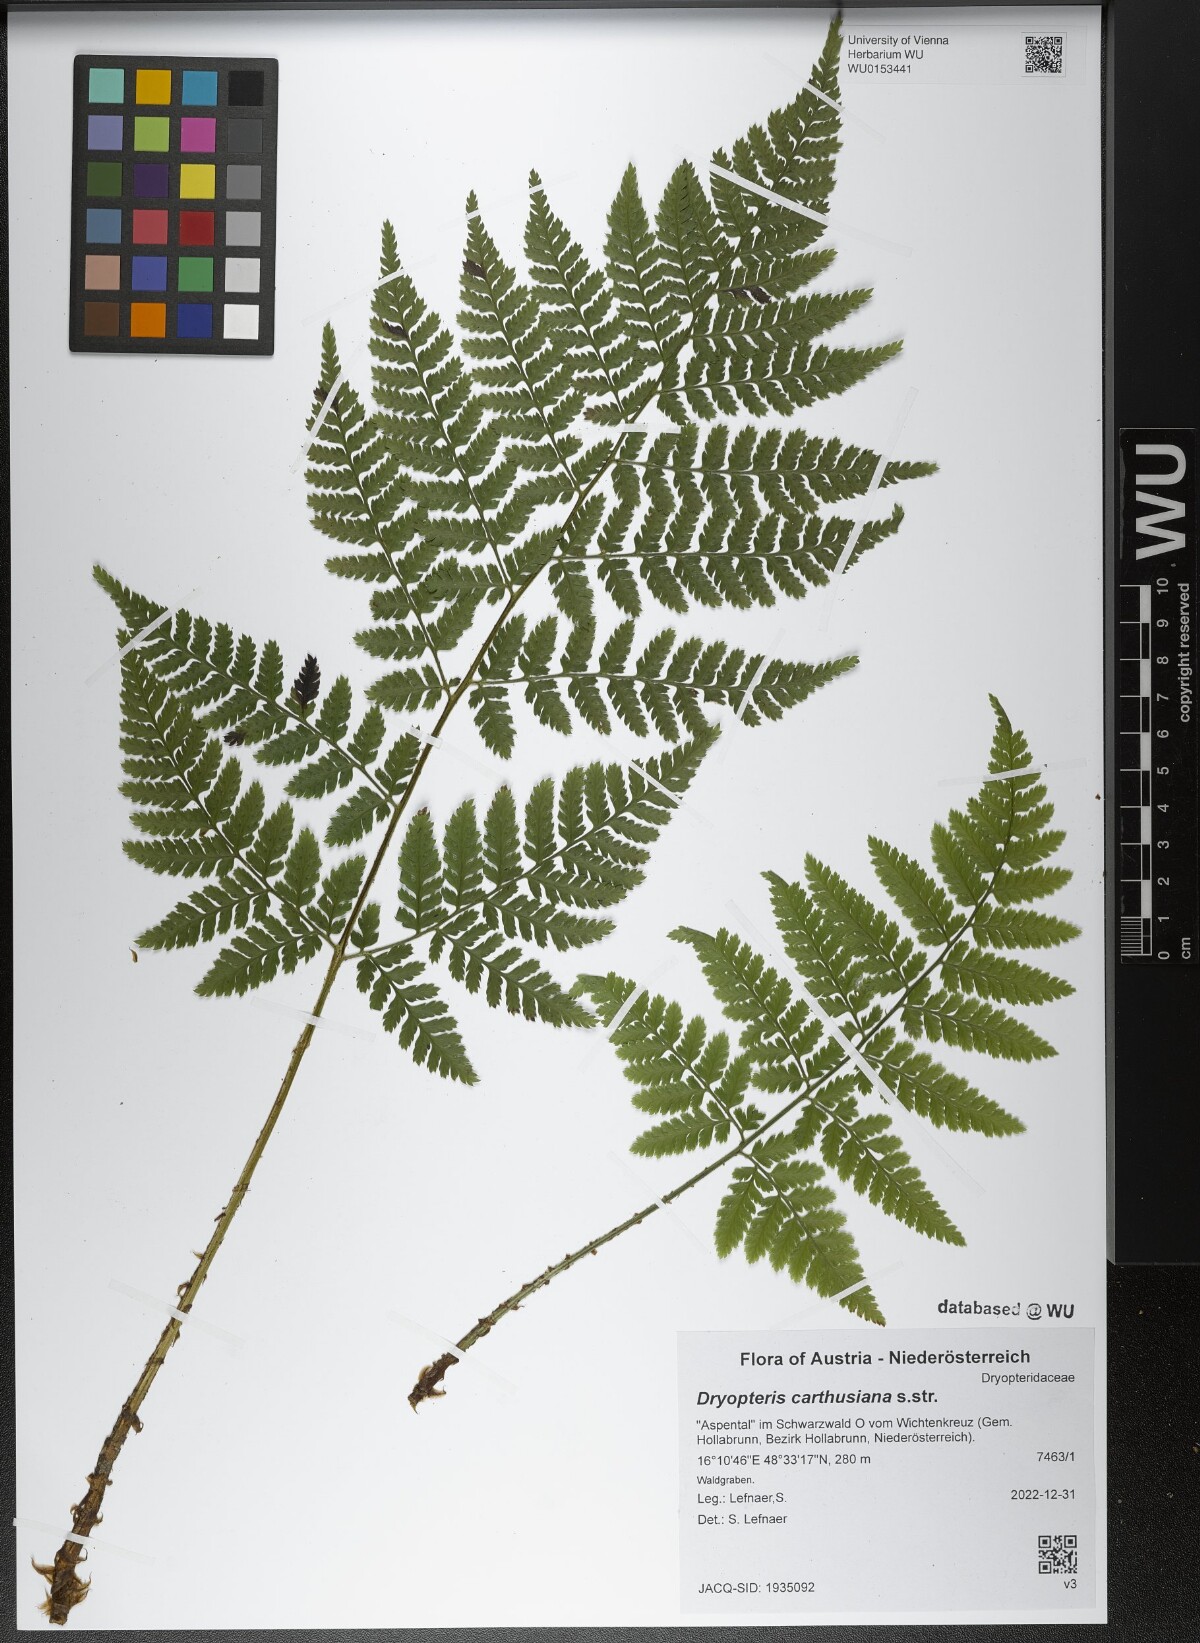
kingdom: Plantae
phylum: Tracheophyta
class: Polypodiopsida
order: Polypodiales
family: Dryopteridaceae
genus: Dryopteris
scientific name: Dryopteris carthusiana
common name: Narrow buckler-fern
